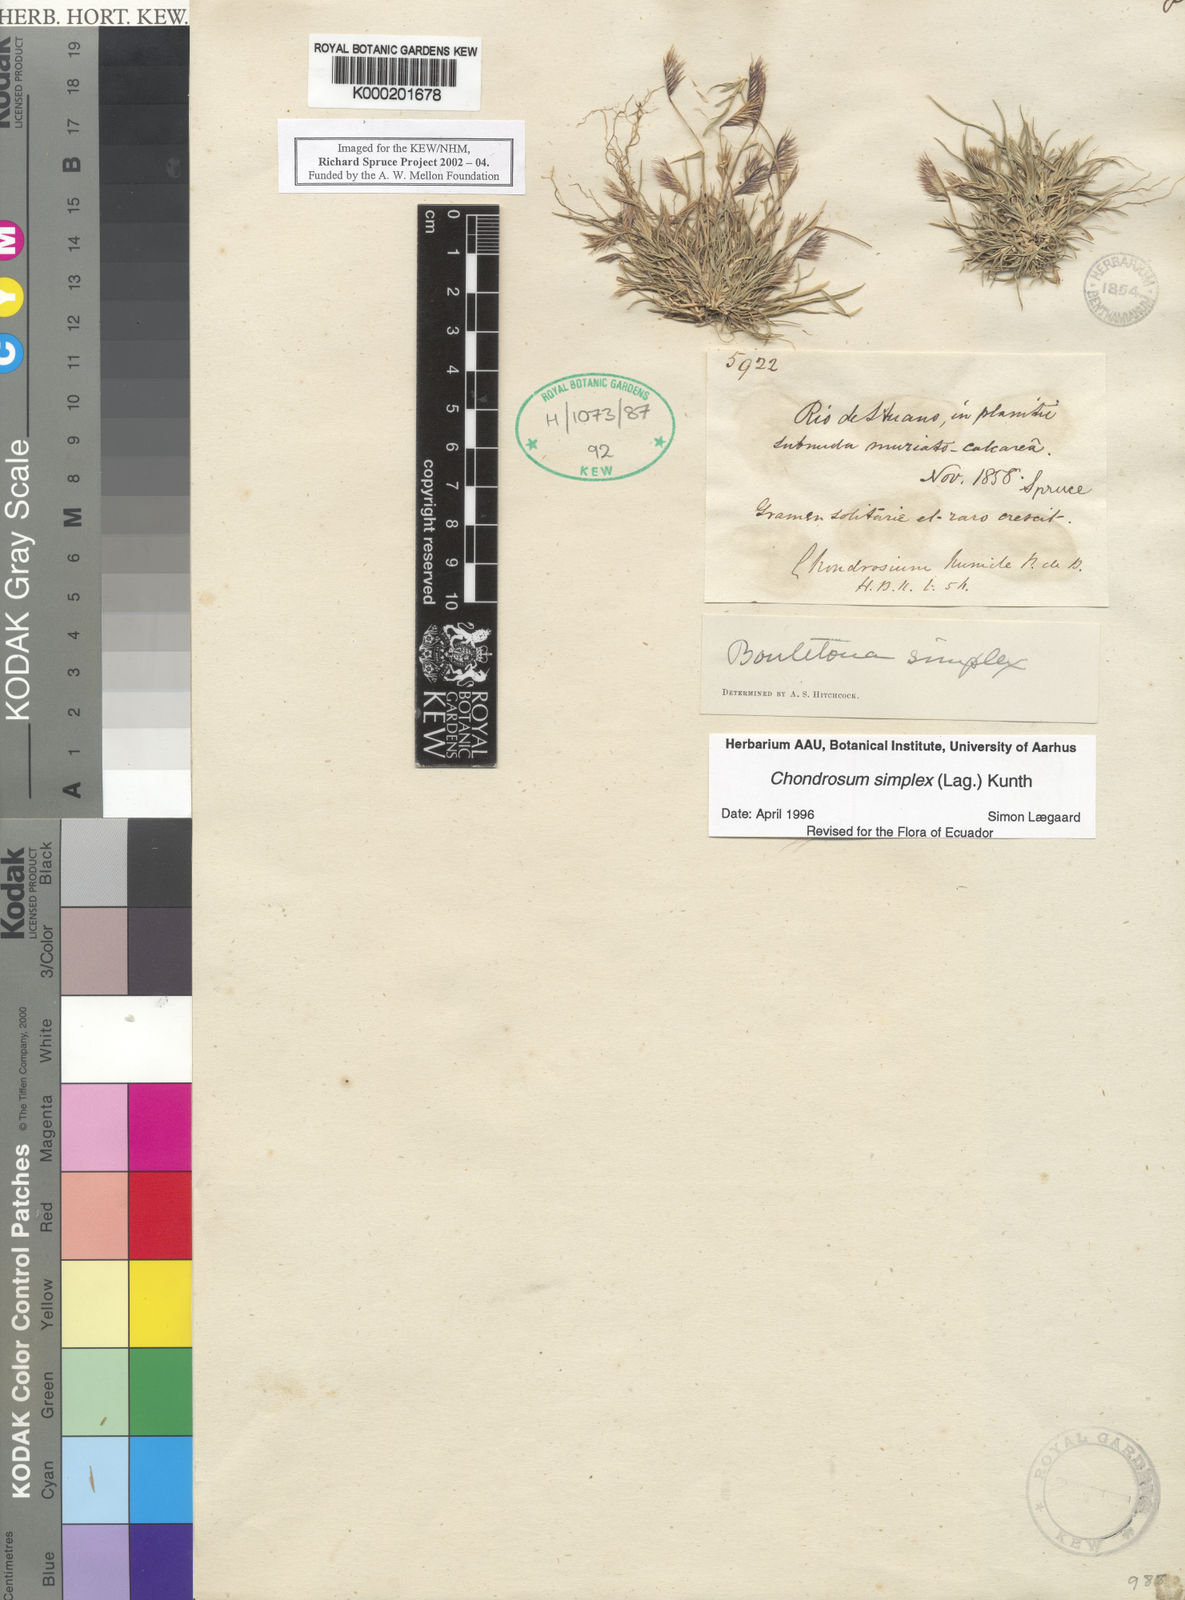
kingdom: Plantae
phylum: Tracheophyta
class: Liliopsida
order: Poales
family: Poaceae
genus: Bouteloua
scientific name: Bouteloua simplex
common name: Mat grama
